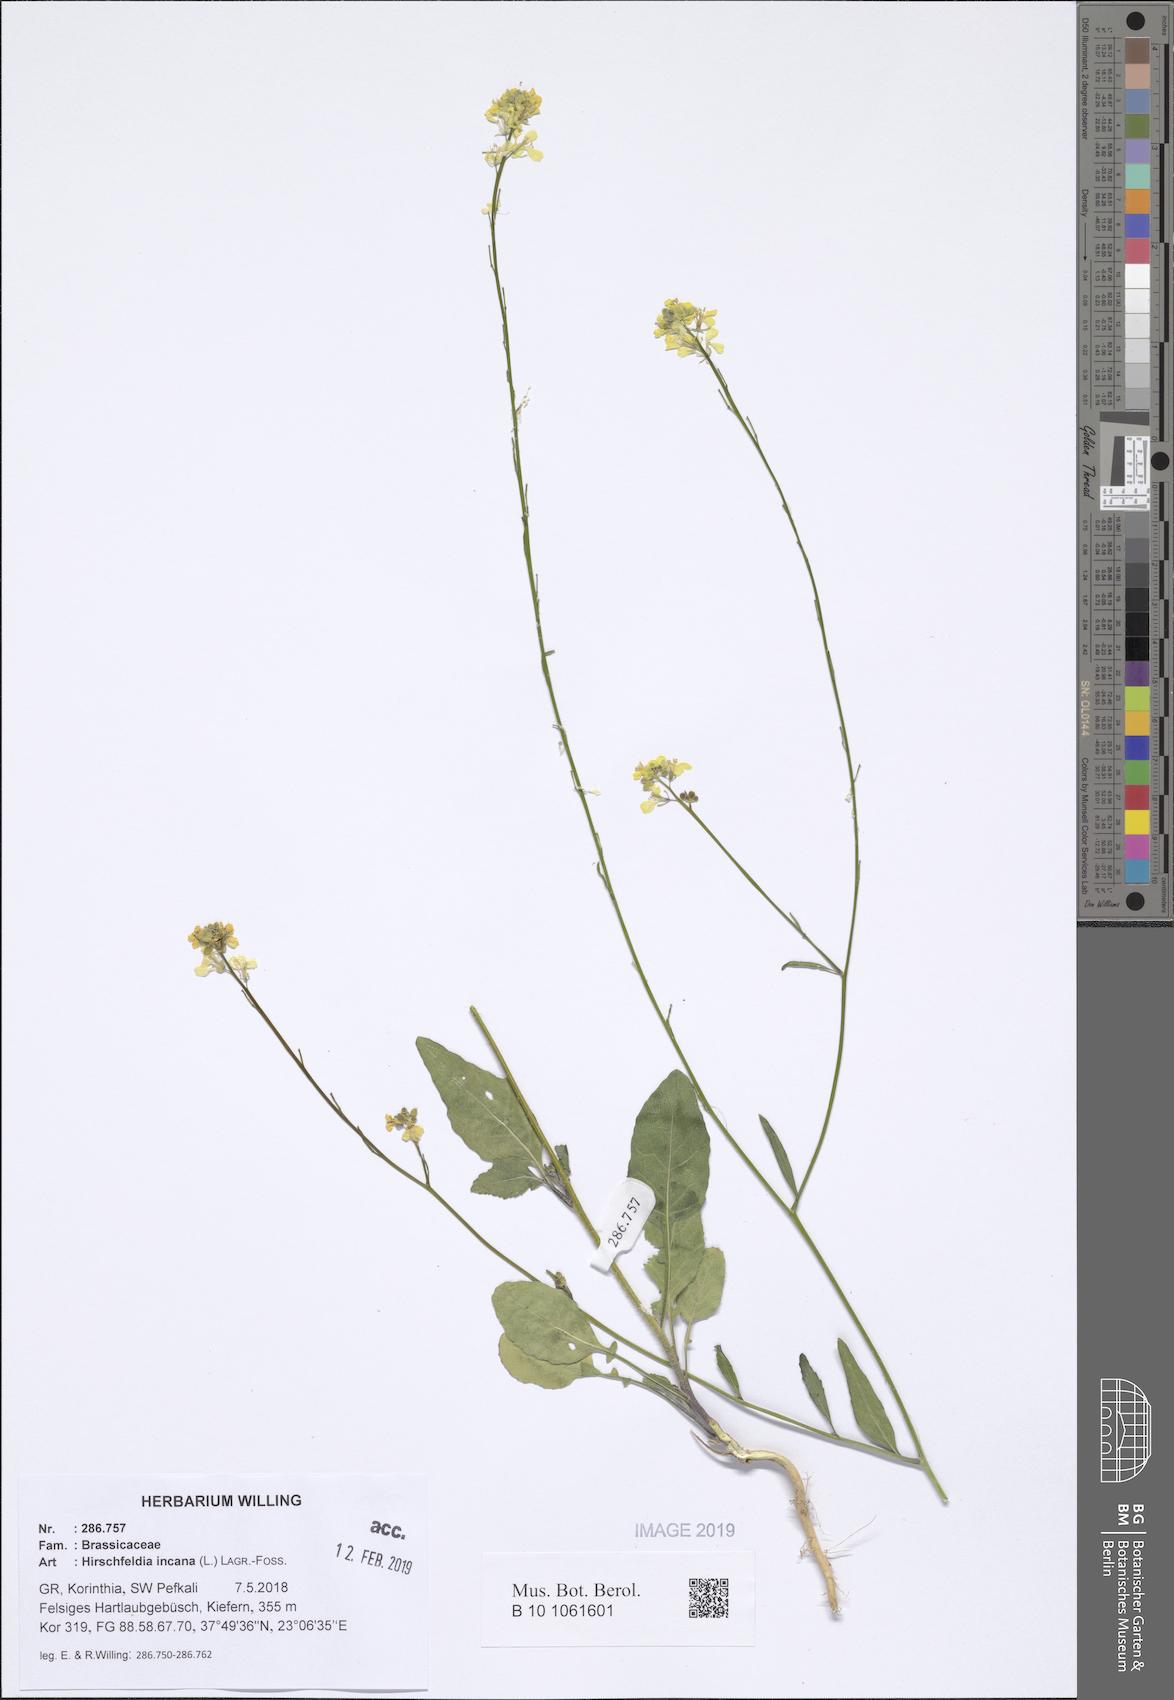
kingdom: Plantae
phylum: Tracheophyta
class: Magnoliopsida
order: Brassicales
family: Brassicaceae
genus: Hirschfeldia
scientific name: Hirschfeldia incana
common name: Hoary mustard
